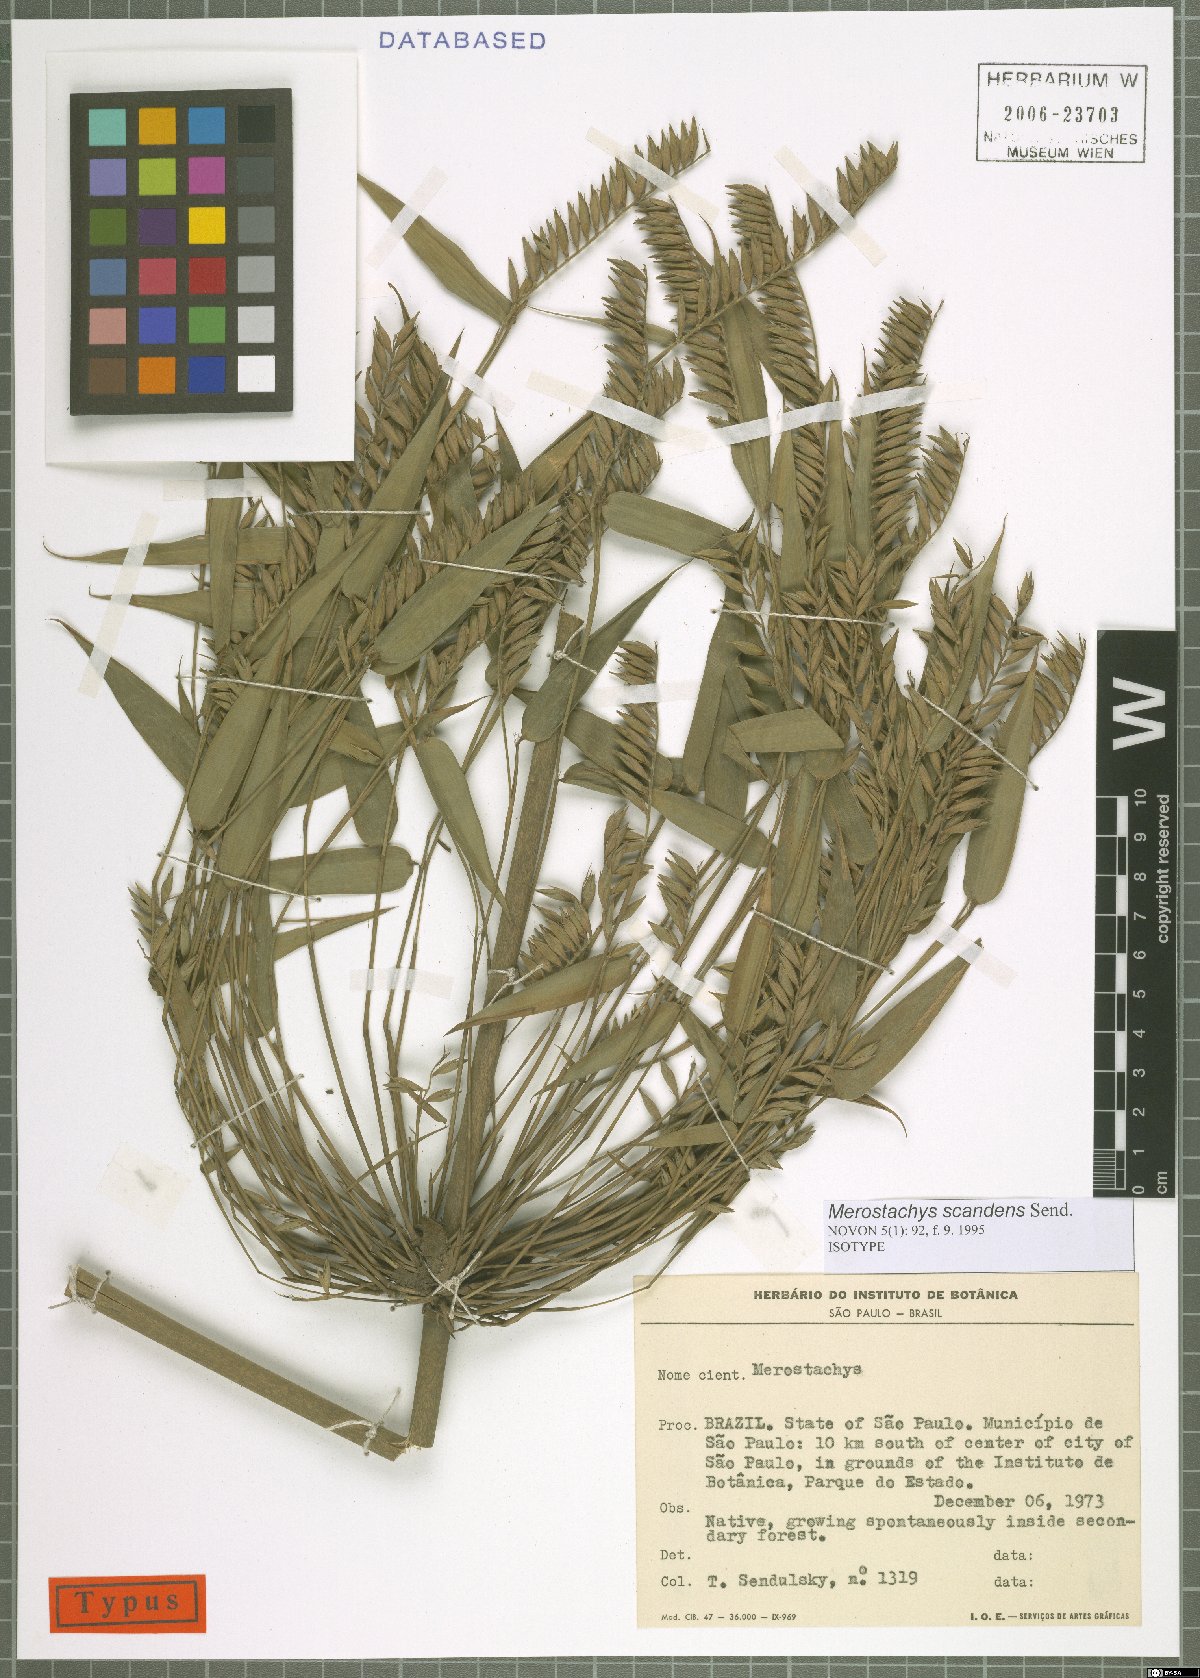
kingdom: Plantae
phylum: Tracheophyta
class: Liliopsida
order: Poales
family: Poaceae
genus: Merostachys
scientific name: Merostachys scandens
